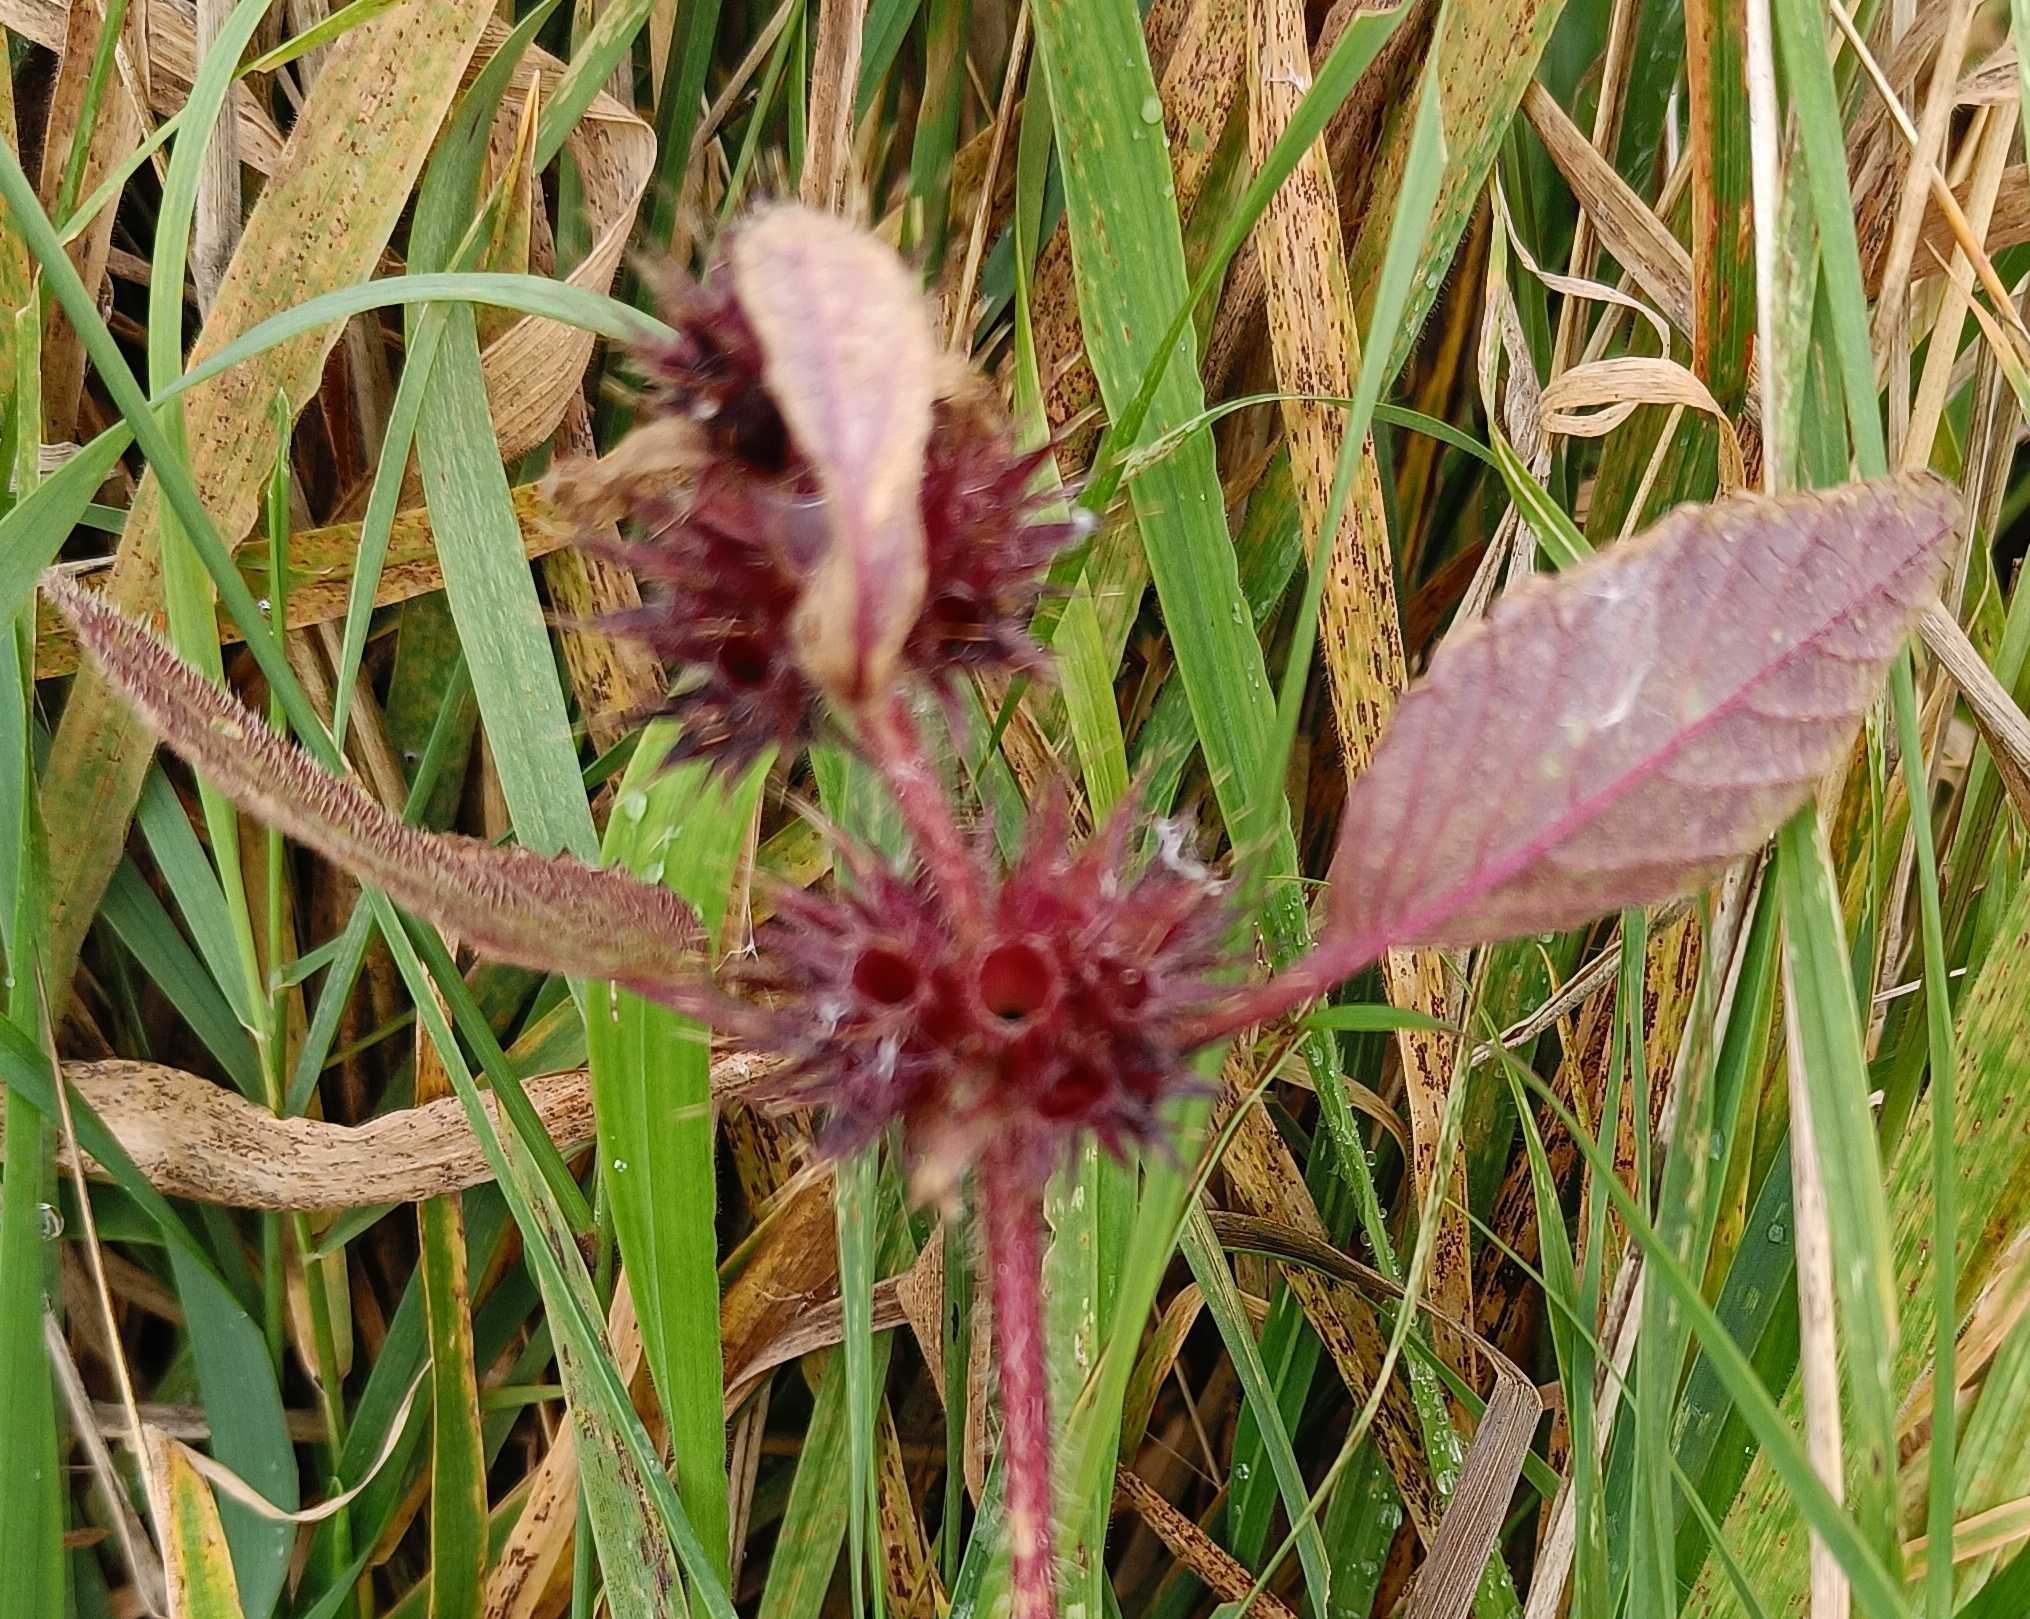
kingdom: Plantae
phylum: Tracheophyta
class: Magnoliopsida
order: Lamiales
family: Lamiaceae
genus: Galeopsis
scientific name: Galeopsis
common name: Hanekroslægten
